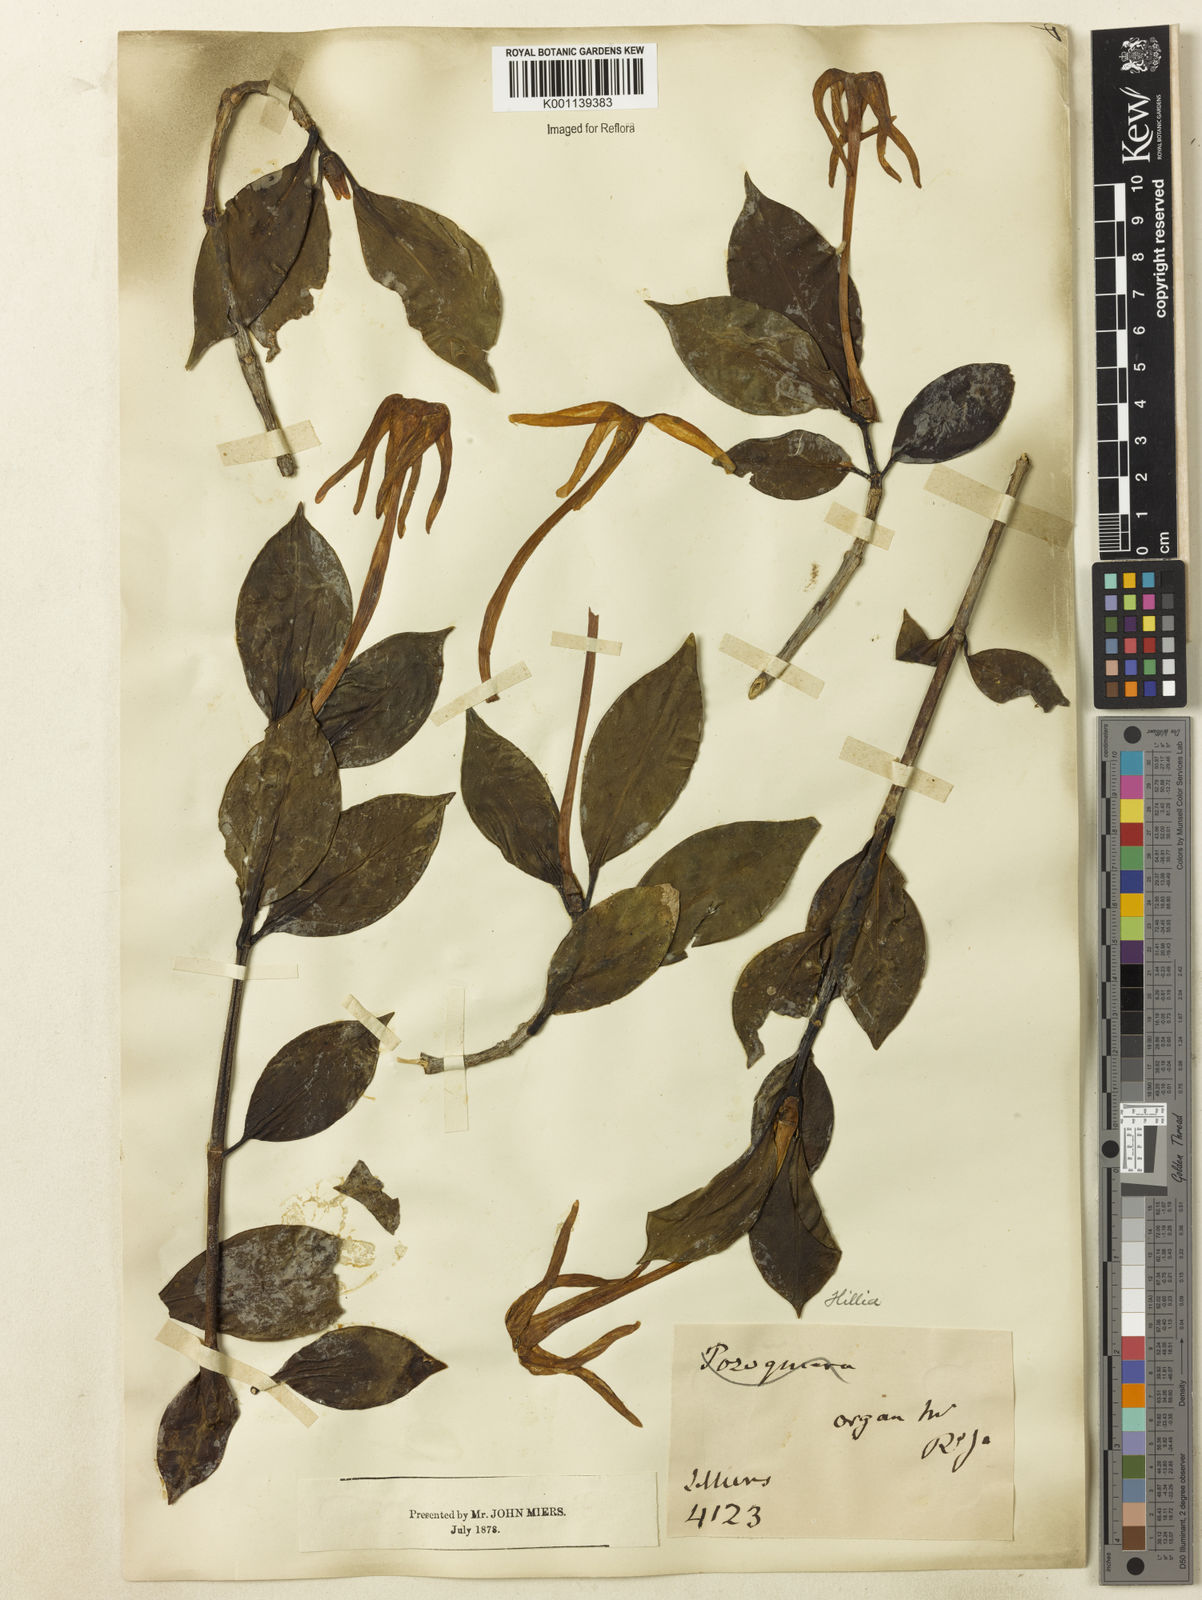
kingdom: Plantae
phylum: Tracheophyta
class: Magnoliopsida
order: Gentianales
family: Rubiaceae
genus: Hillia
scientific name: Hillia parasitica
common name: Morning star
